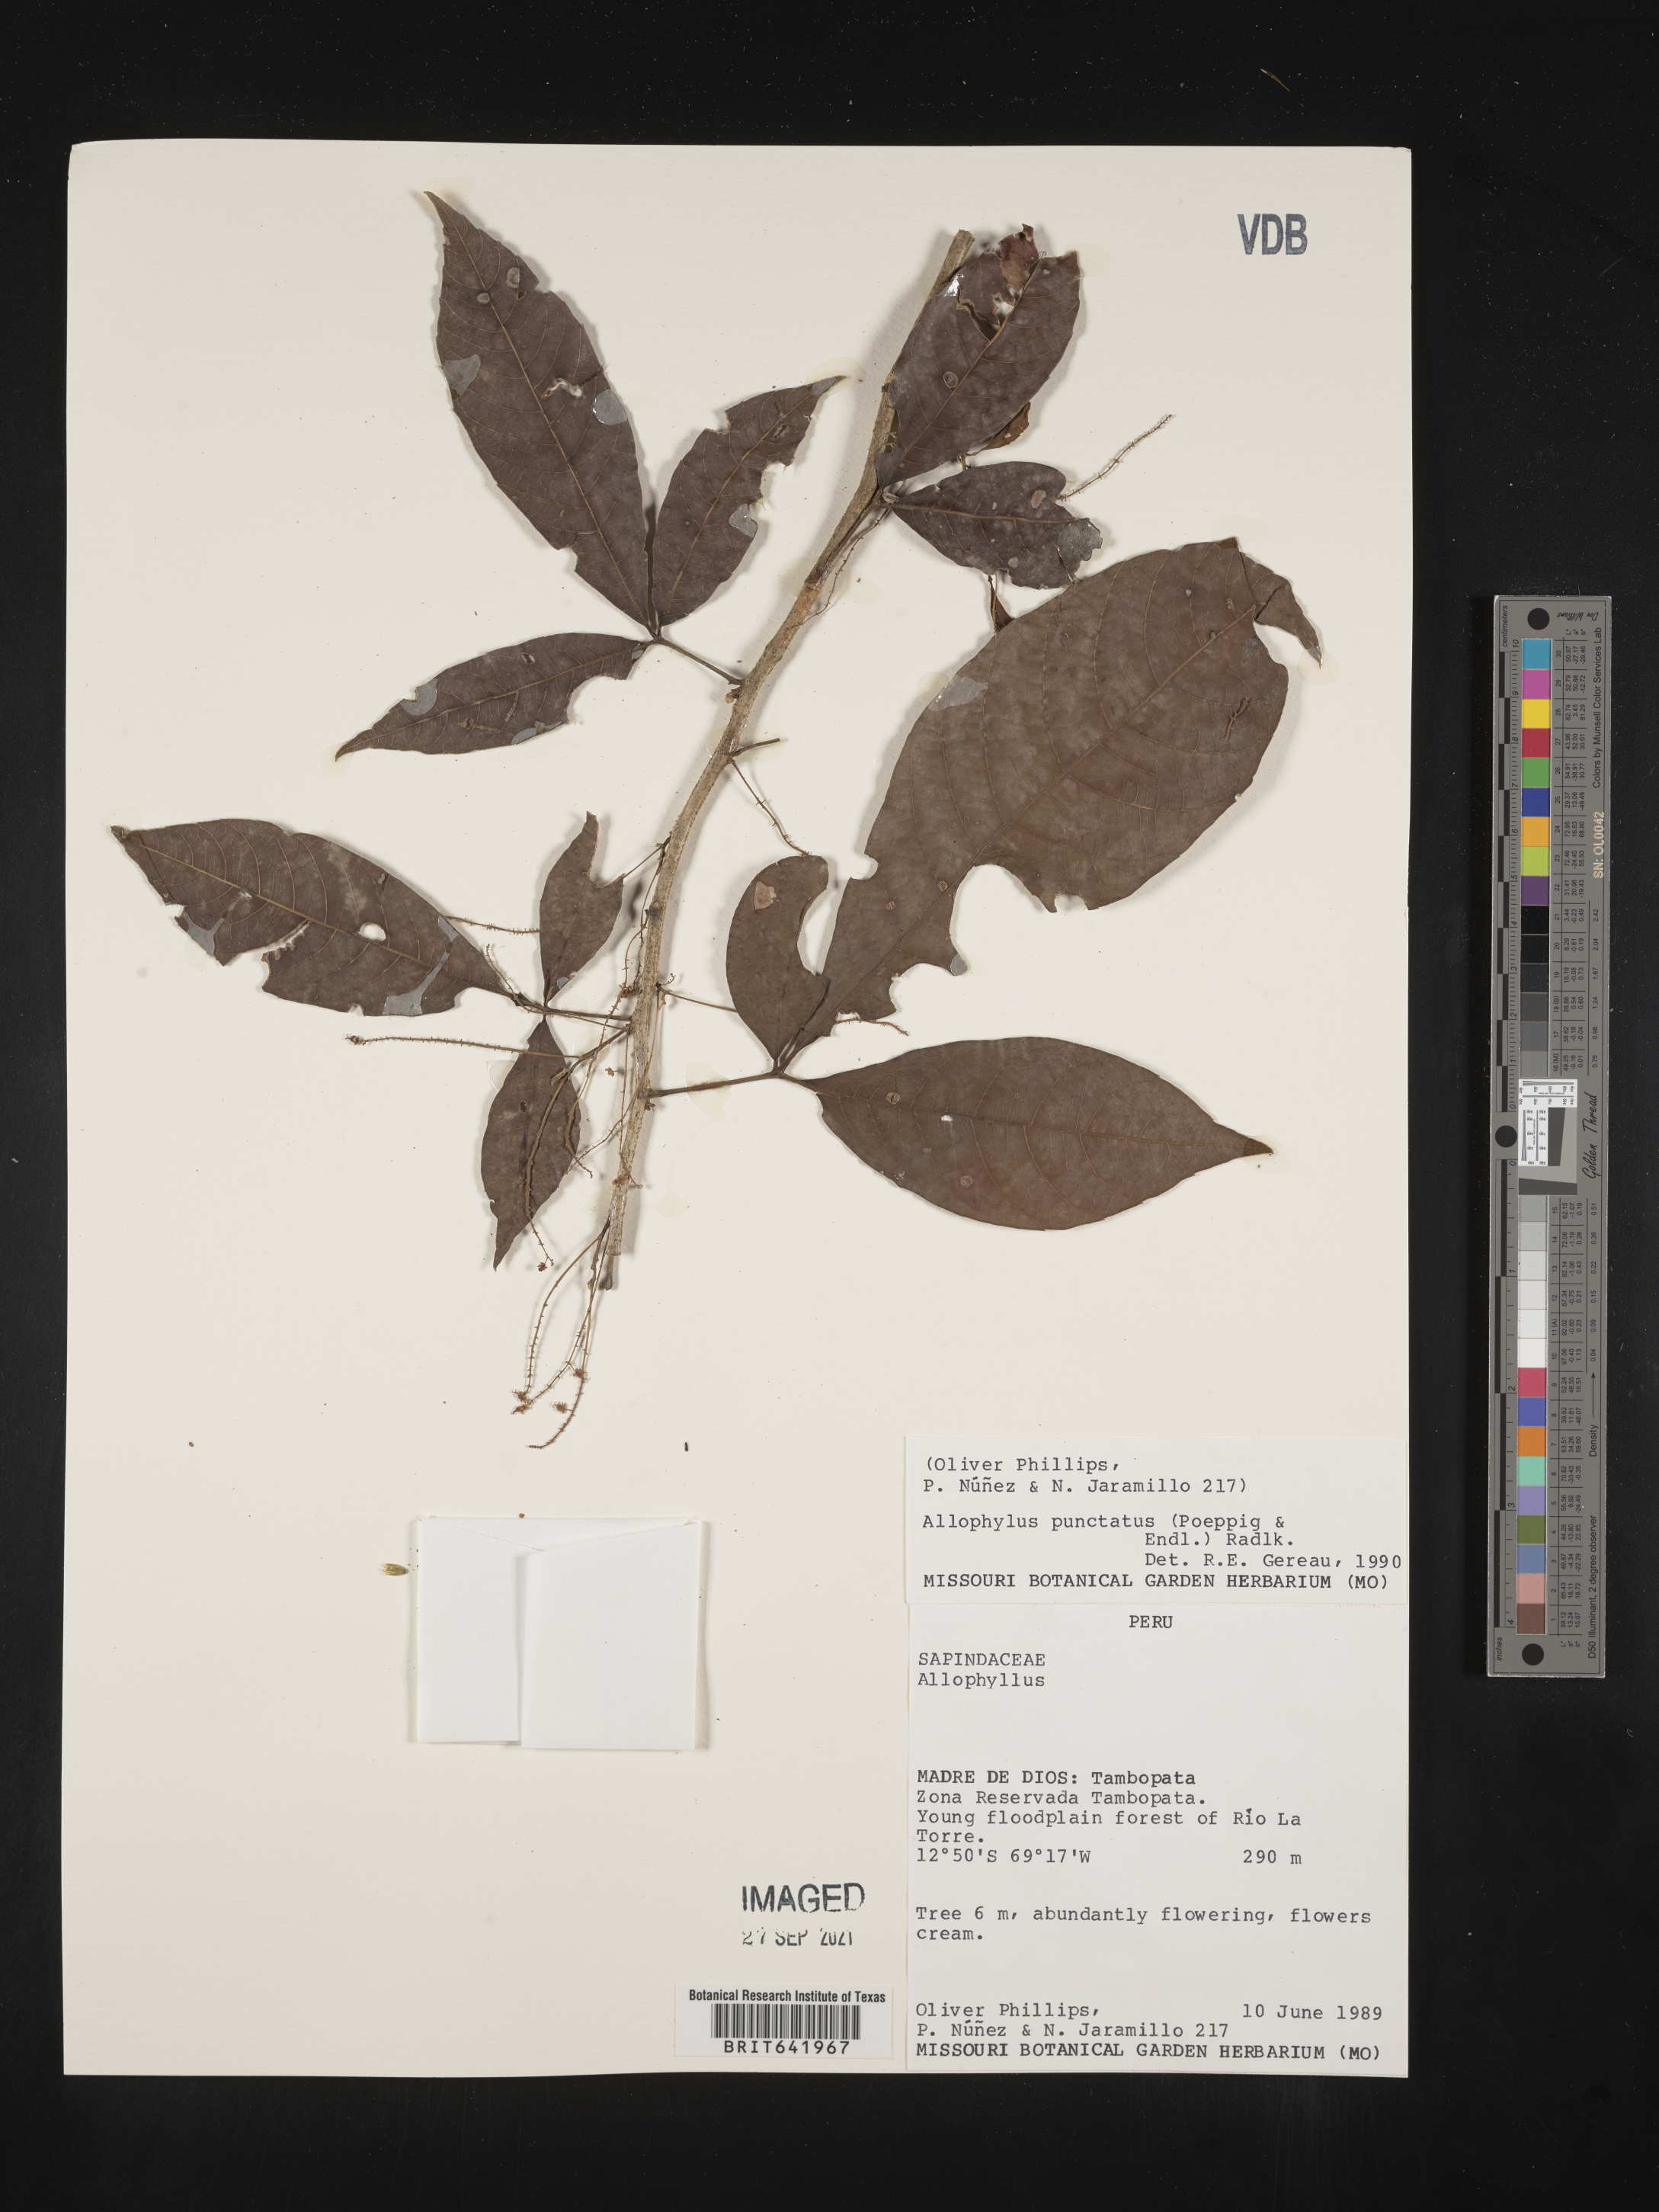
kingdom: Plantae
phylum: Tracheophyta
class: Magnoliopsida
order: Sapindales
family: Sapindaceae
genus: Allophylus
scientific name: Allophylus
